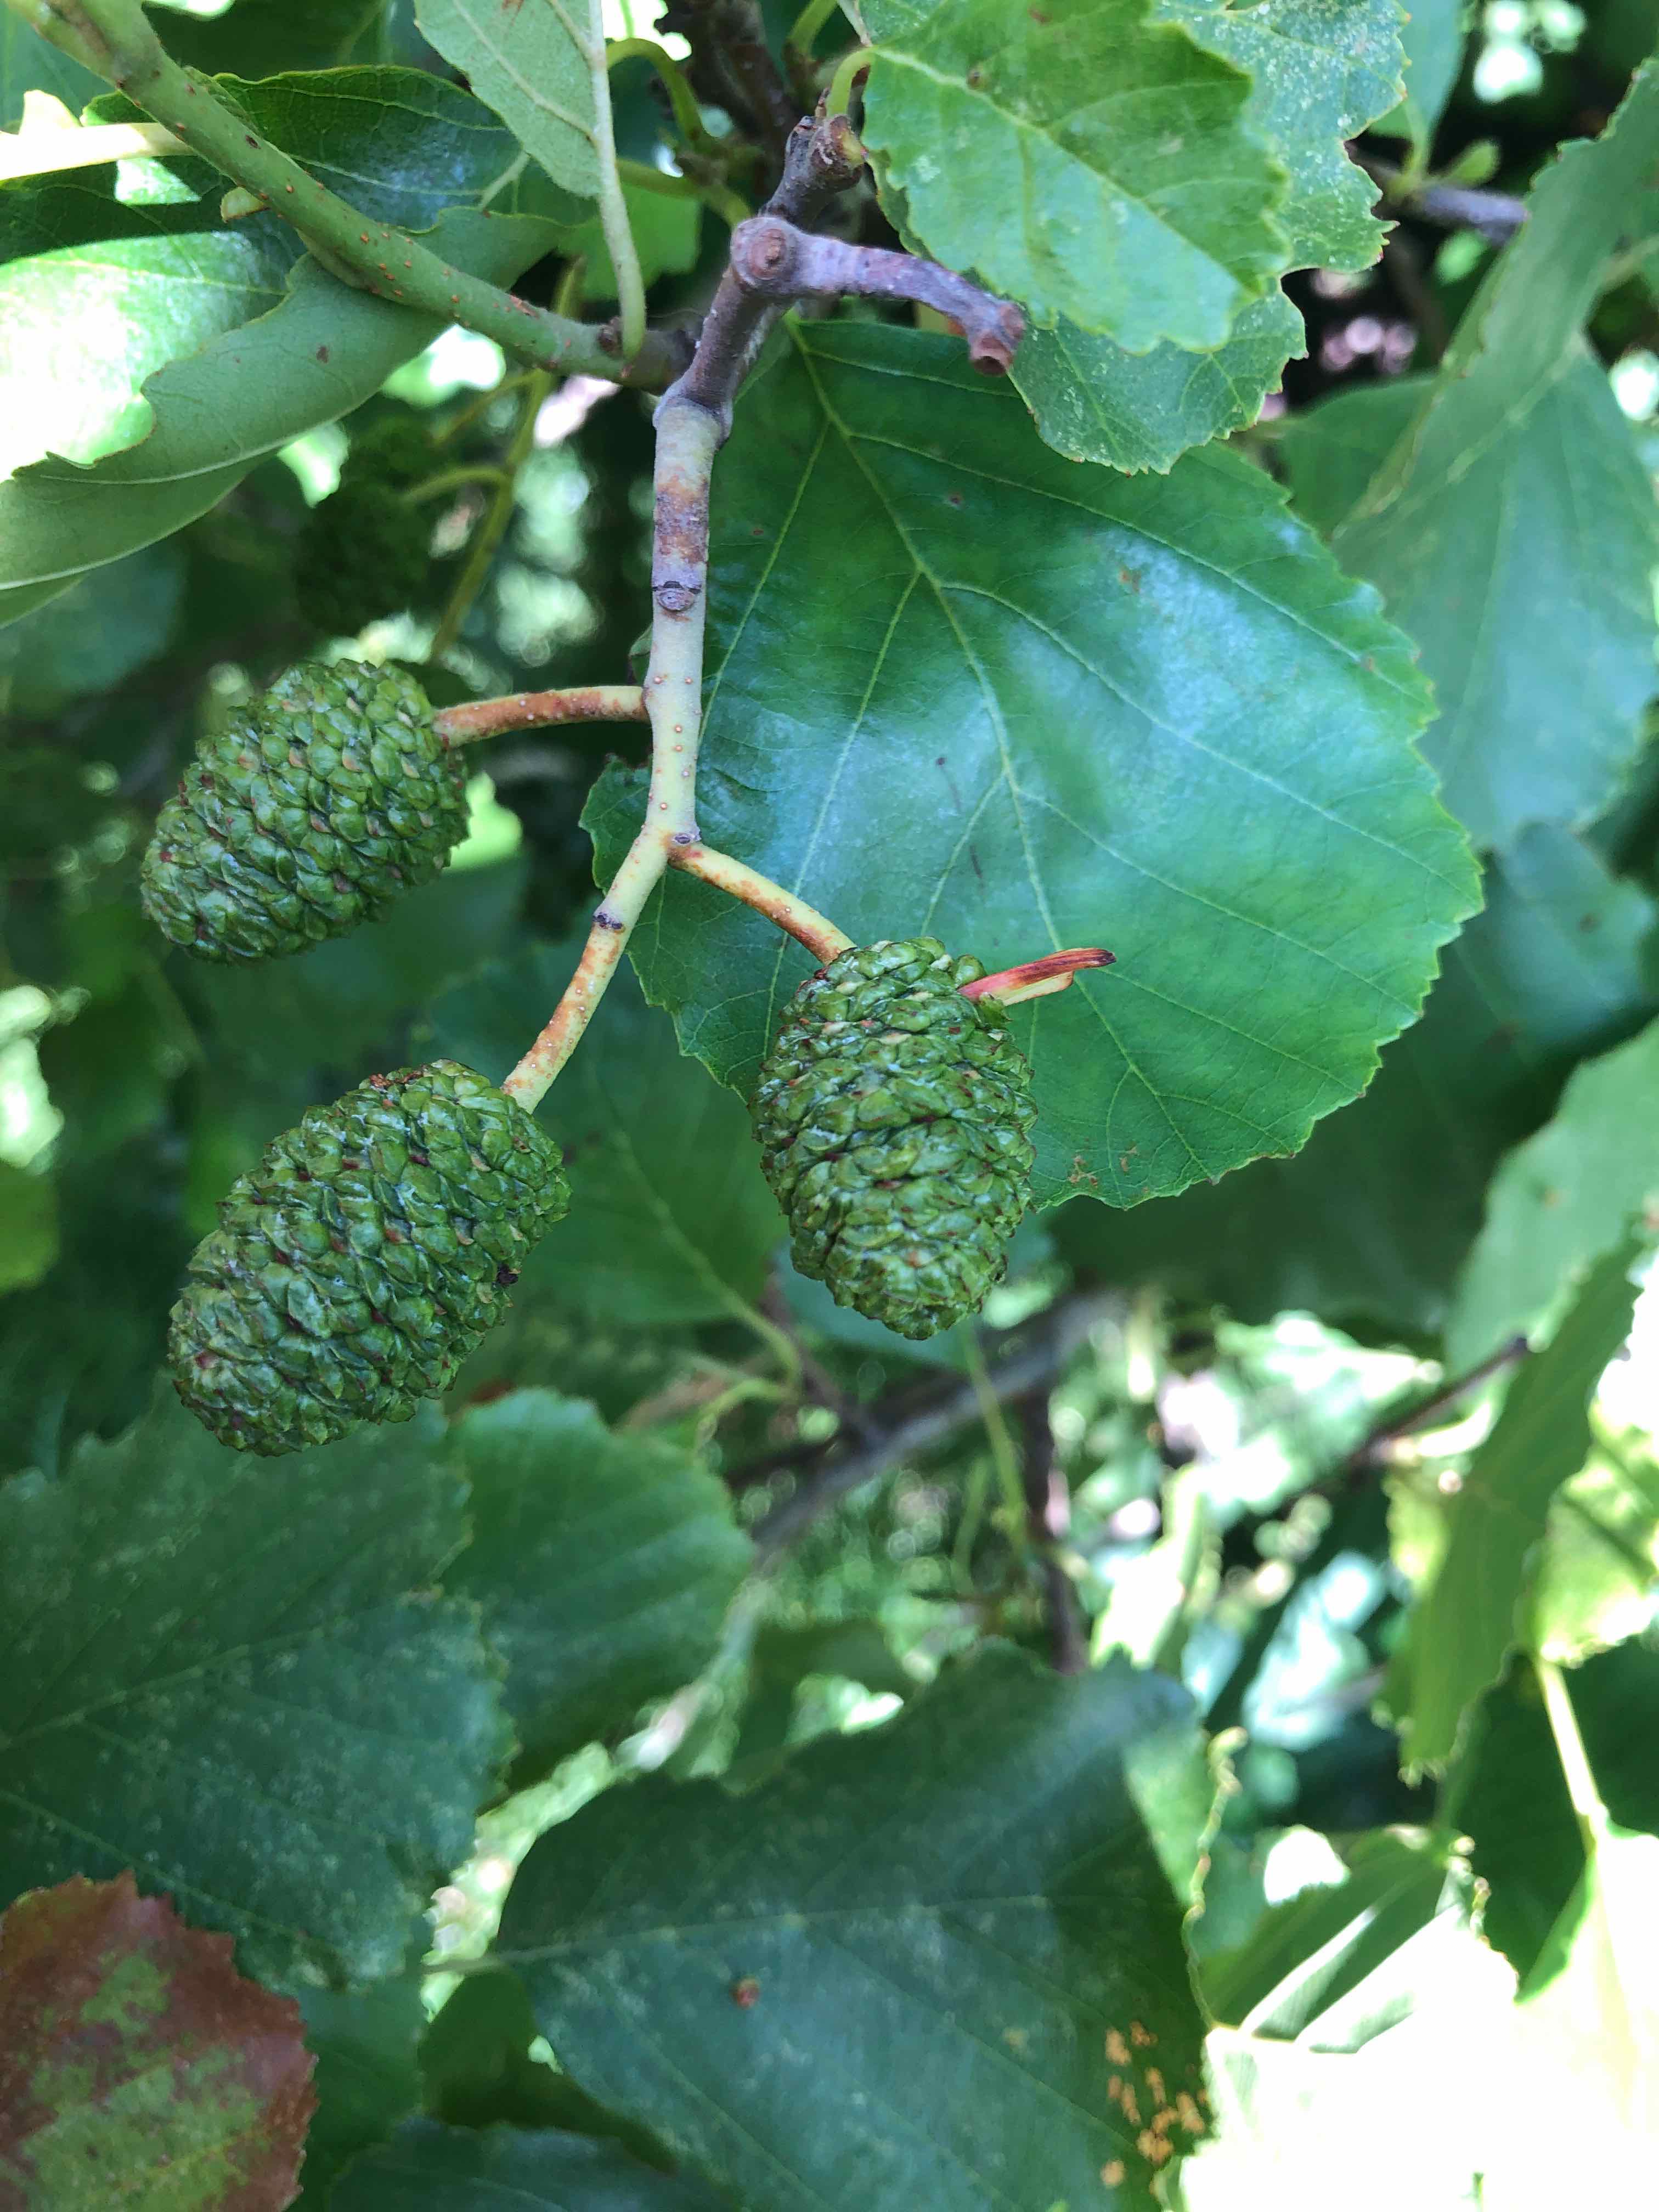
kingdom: Fungi
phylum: Ascomycota
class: Taphrinomycetes
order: Taphrinales
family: Taphrinaceae
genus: Taphrina
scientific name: Taphrina alni
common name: Alder tongue
